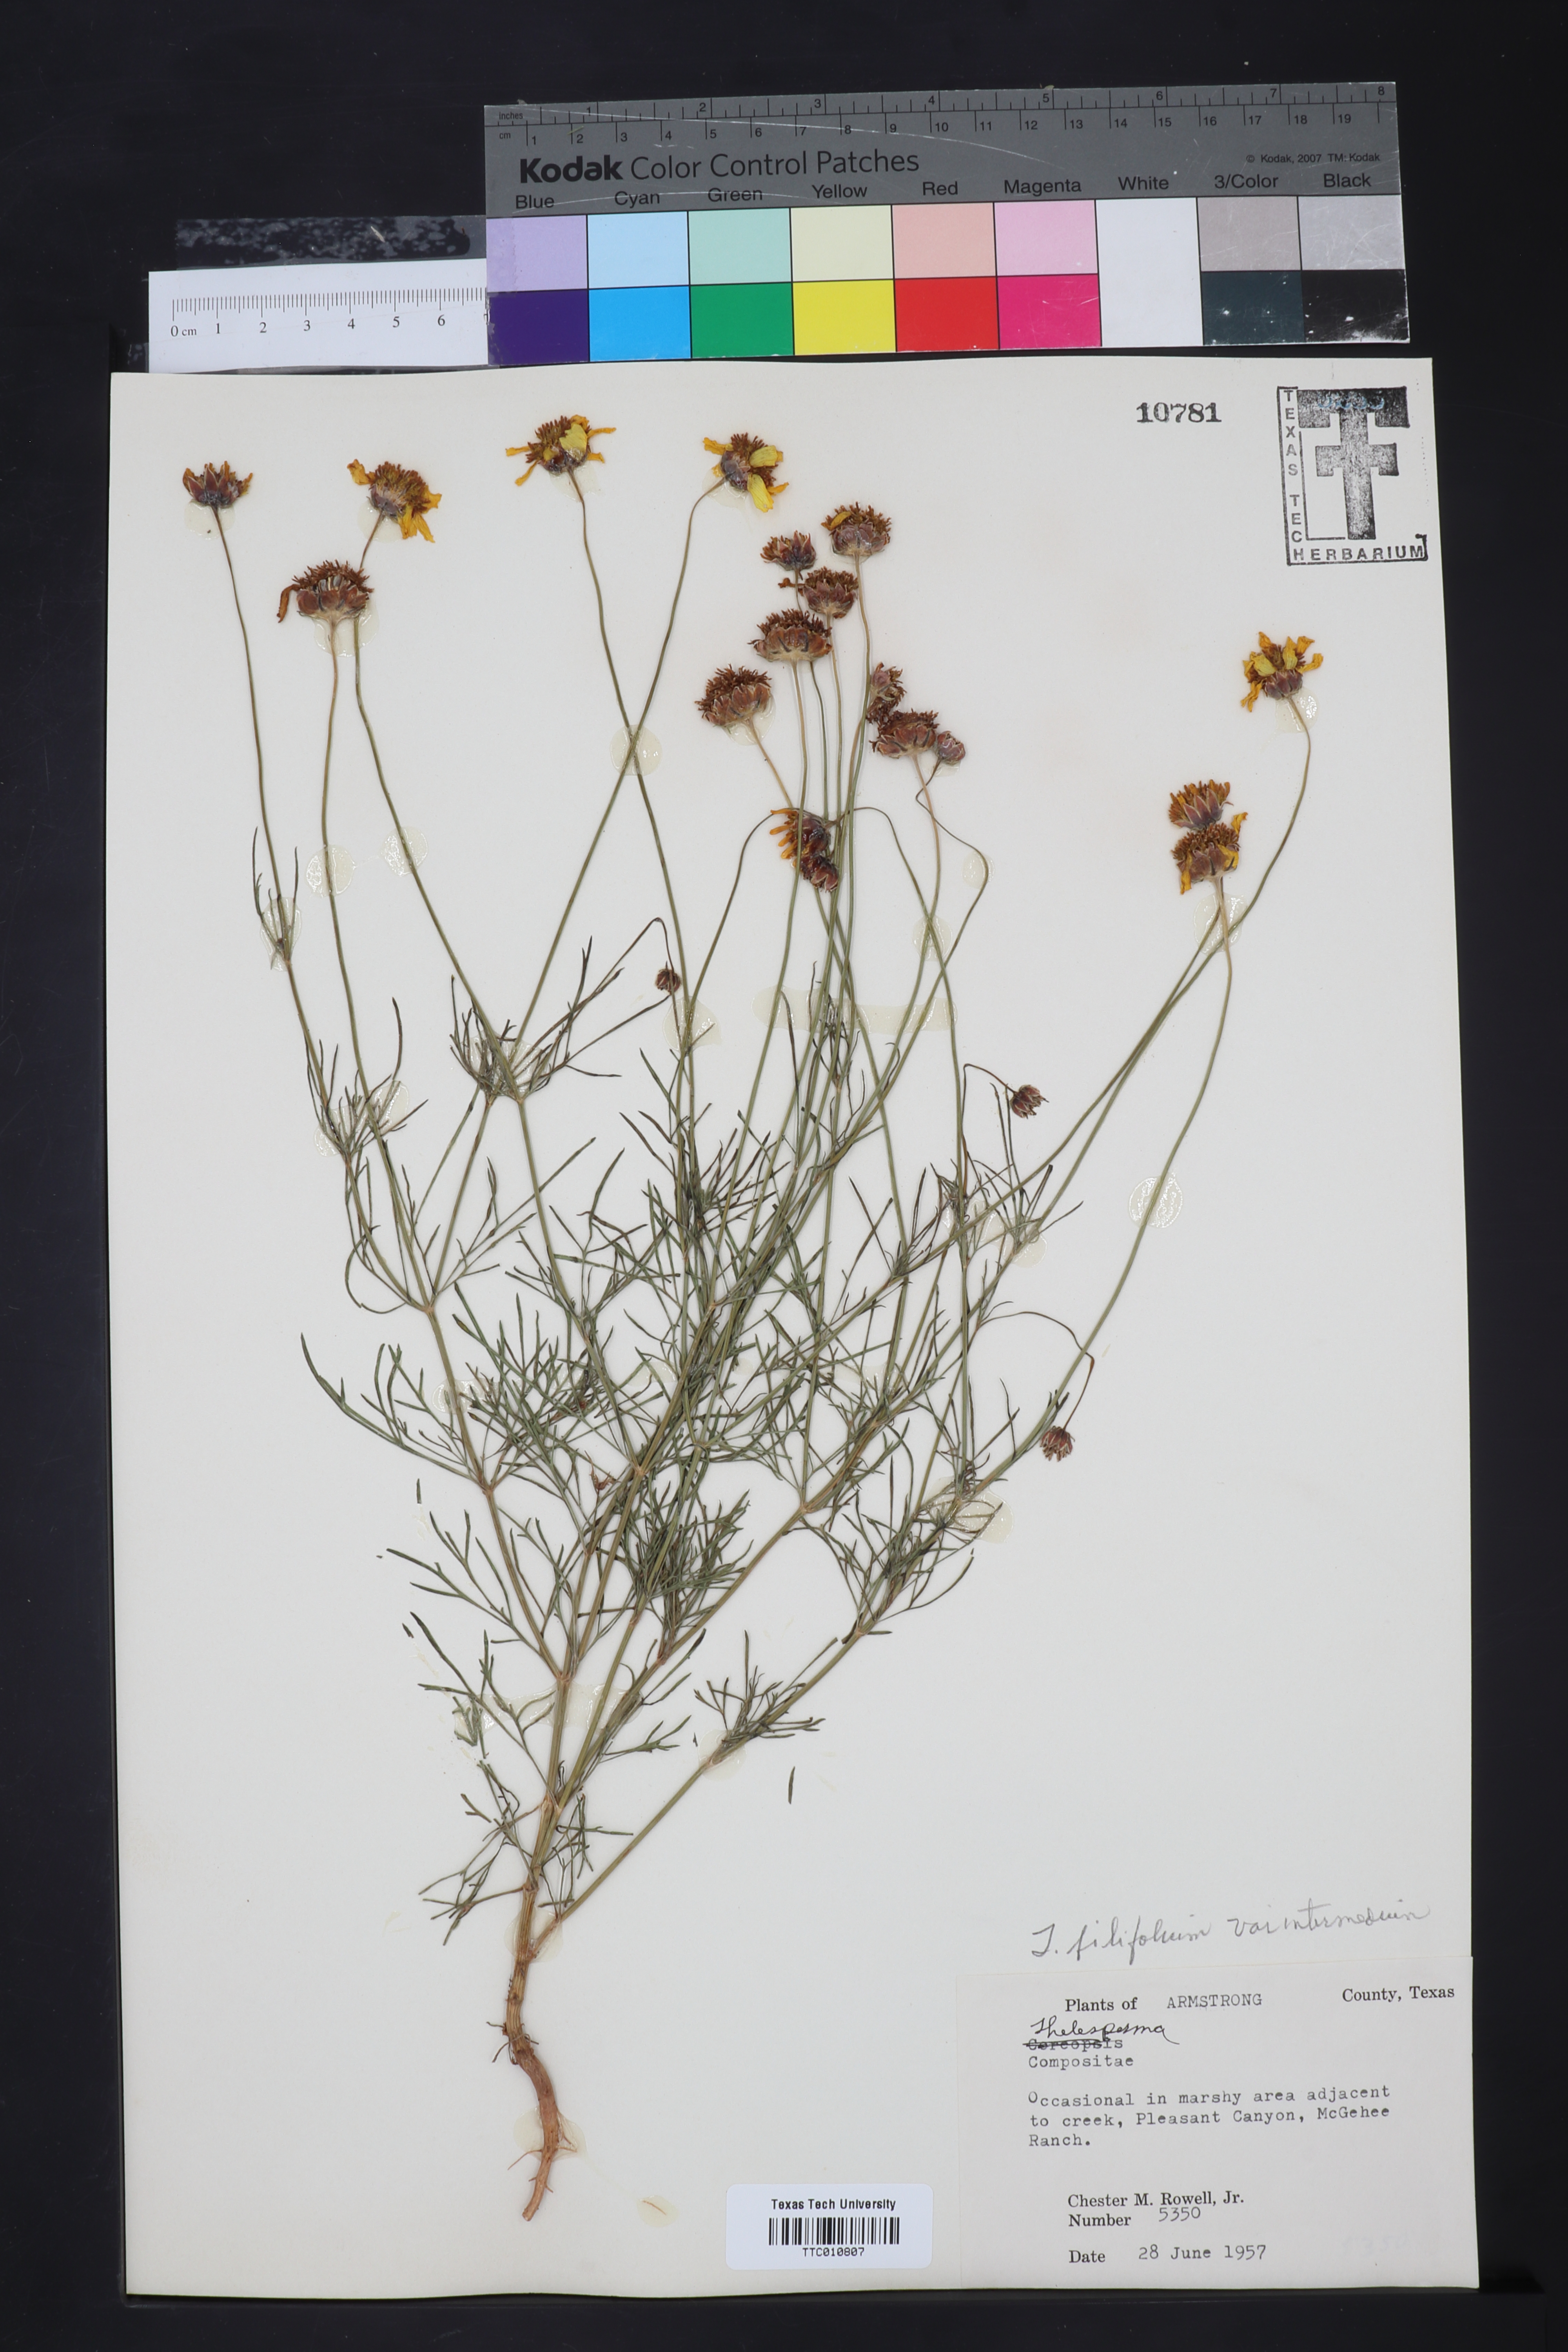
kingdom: Plantae
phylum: Tracheophyta
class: Magnoliopsida
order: Asterales
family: Asteraceae
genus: Thelesperma
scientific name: Thelesperma filifolium
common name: Stiff greenthread
